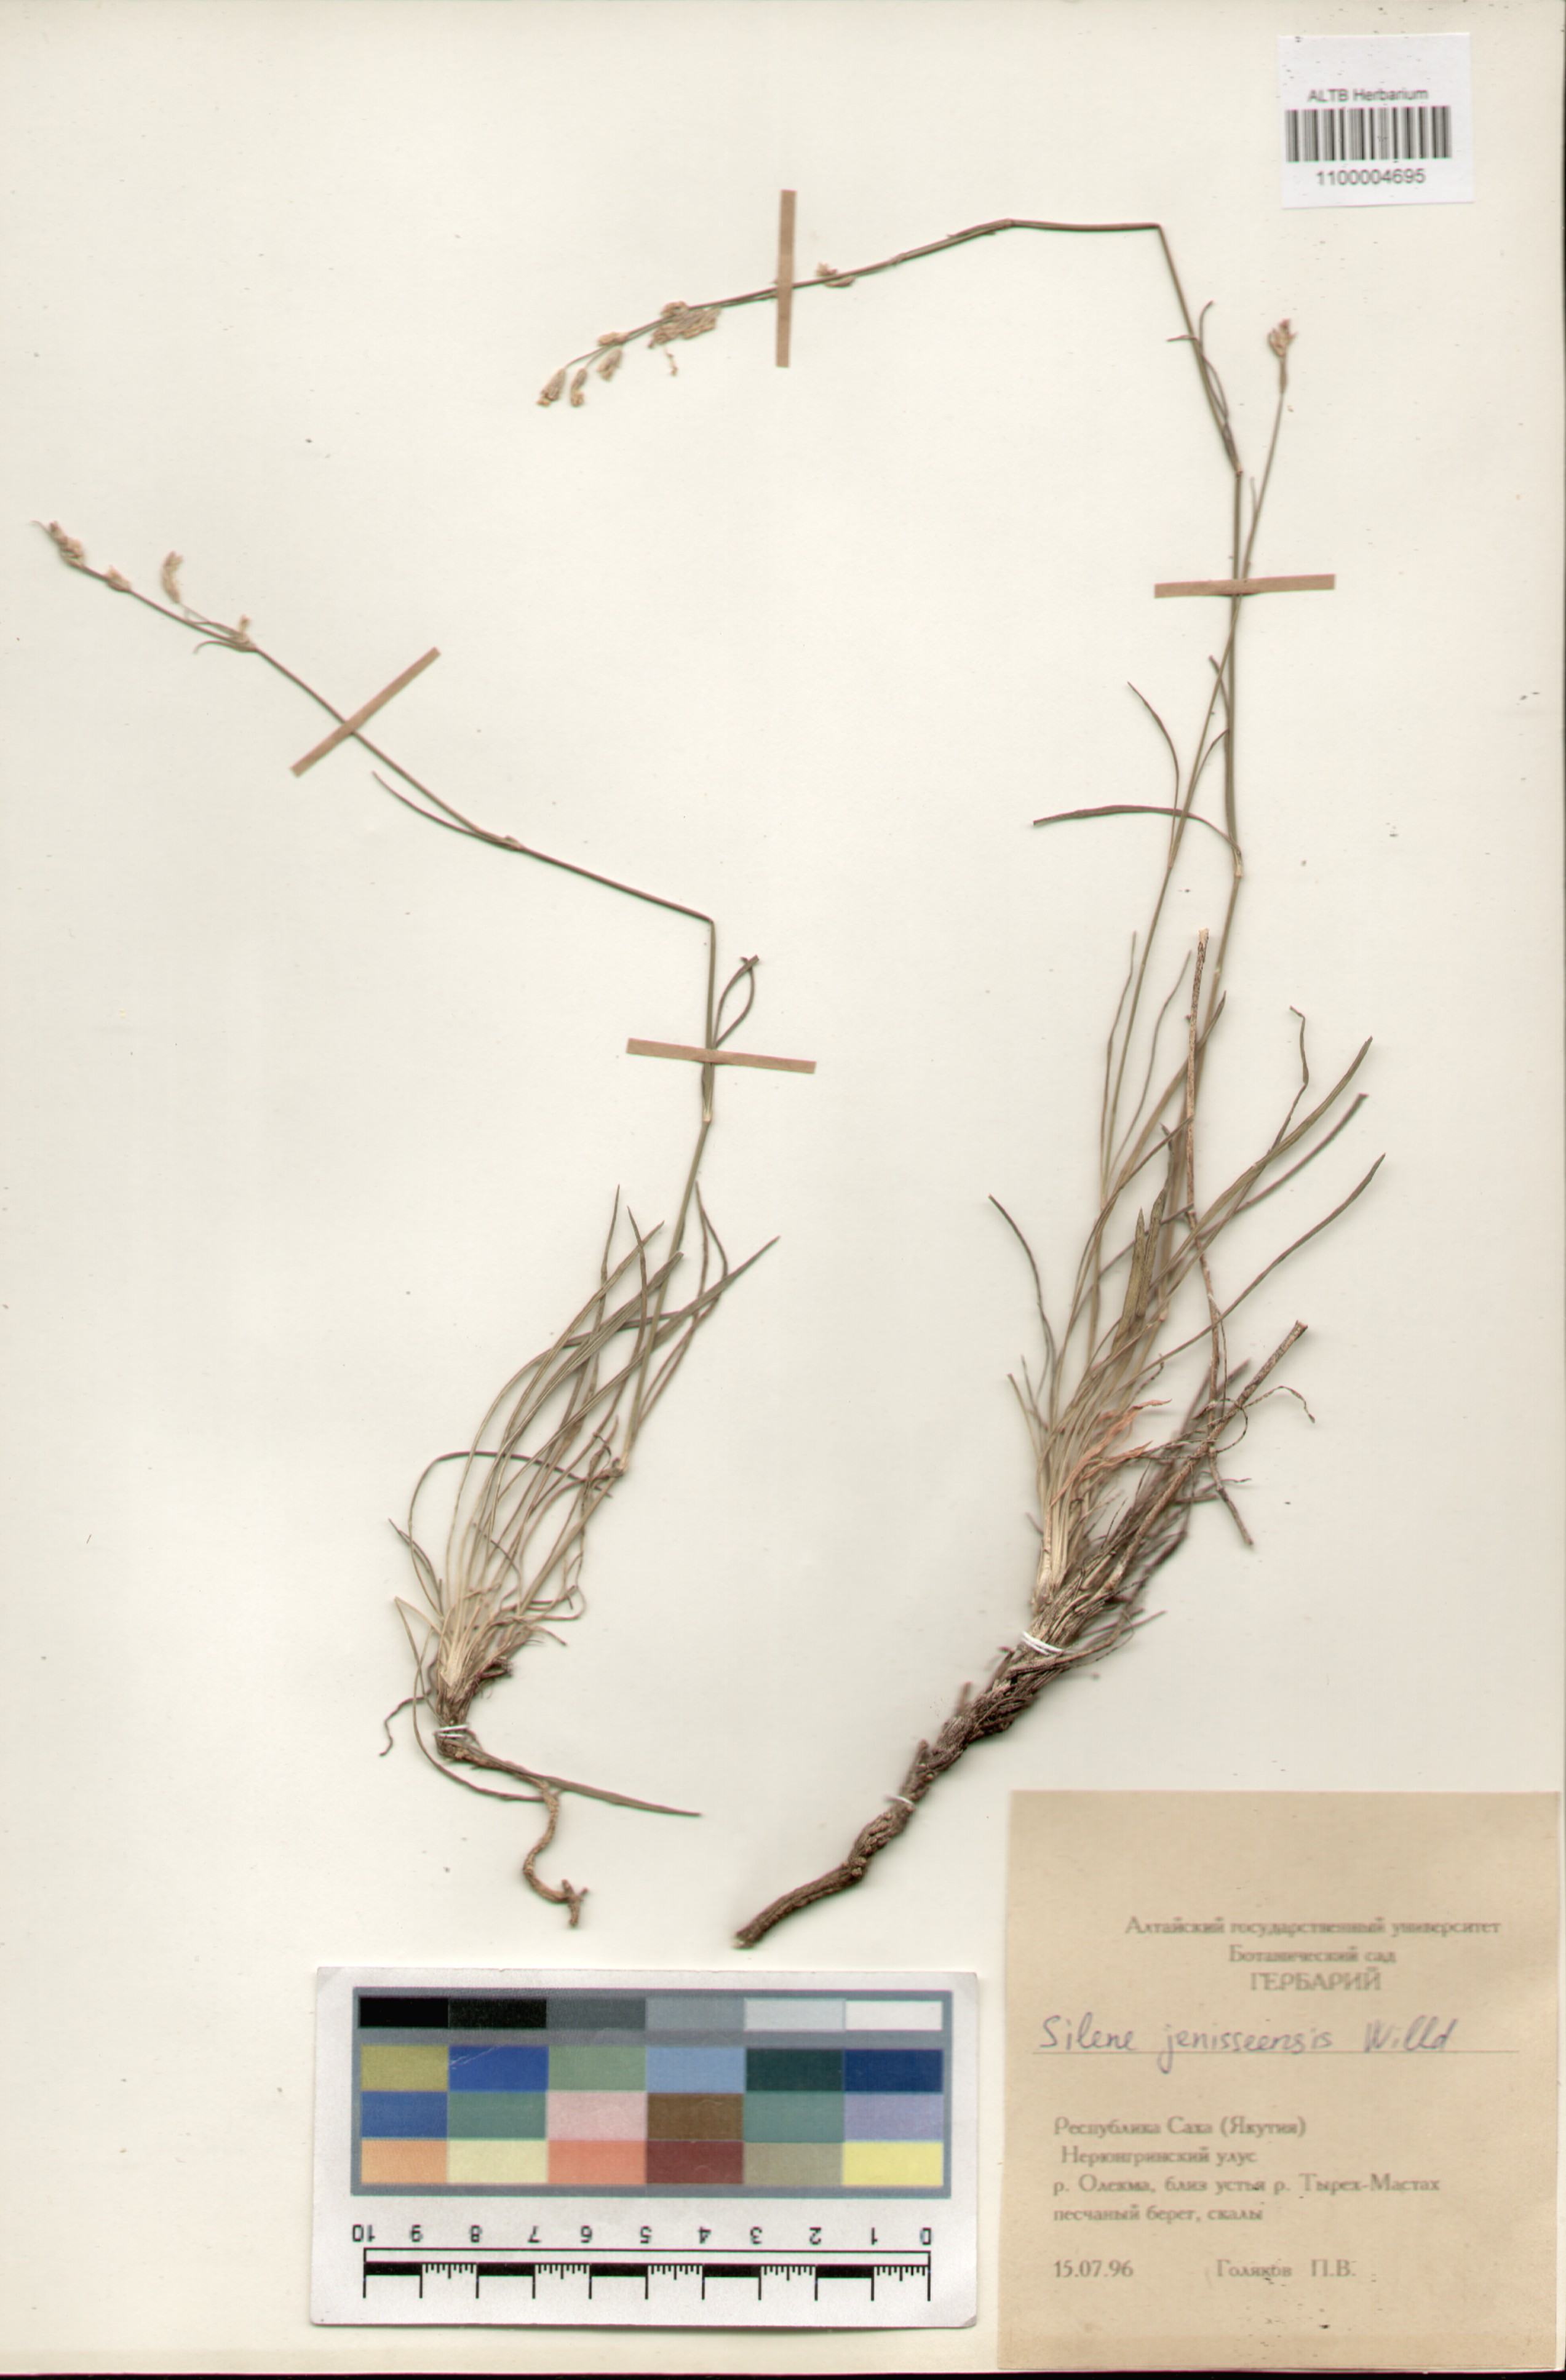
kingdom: Plantae
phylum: Tracheophyta
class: Magnoliopsida
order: Caryophyllales
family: Caryophyllaceae
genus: Silene
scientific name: Silene jeniseensis
